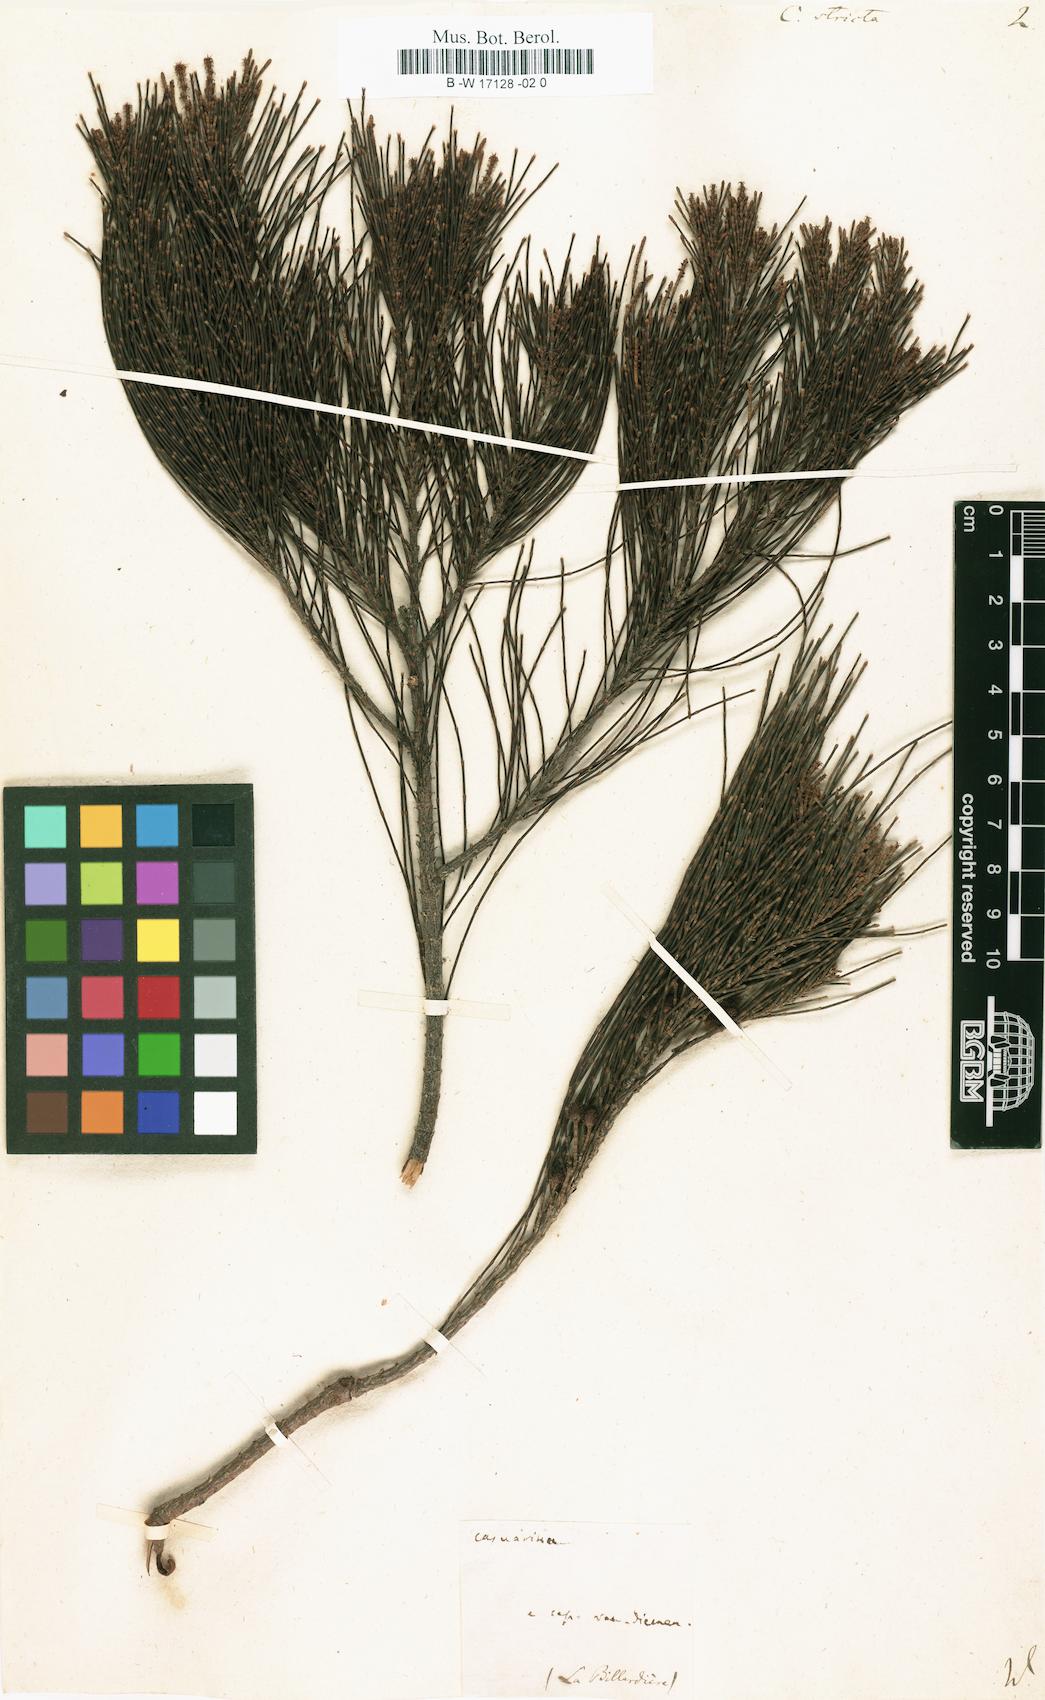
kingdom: Plantae
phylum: Tracheophyta
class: Magnoliopsida
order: Fagales
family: Casuarinaceae
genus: Allocasuarina
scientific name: Allocasuarina verticillata
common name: Drooping she-oak
